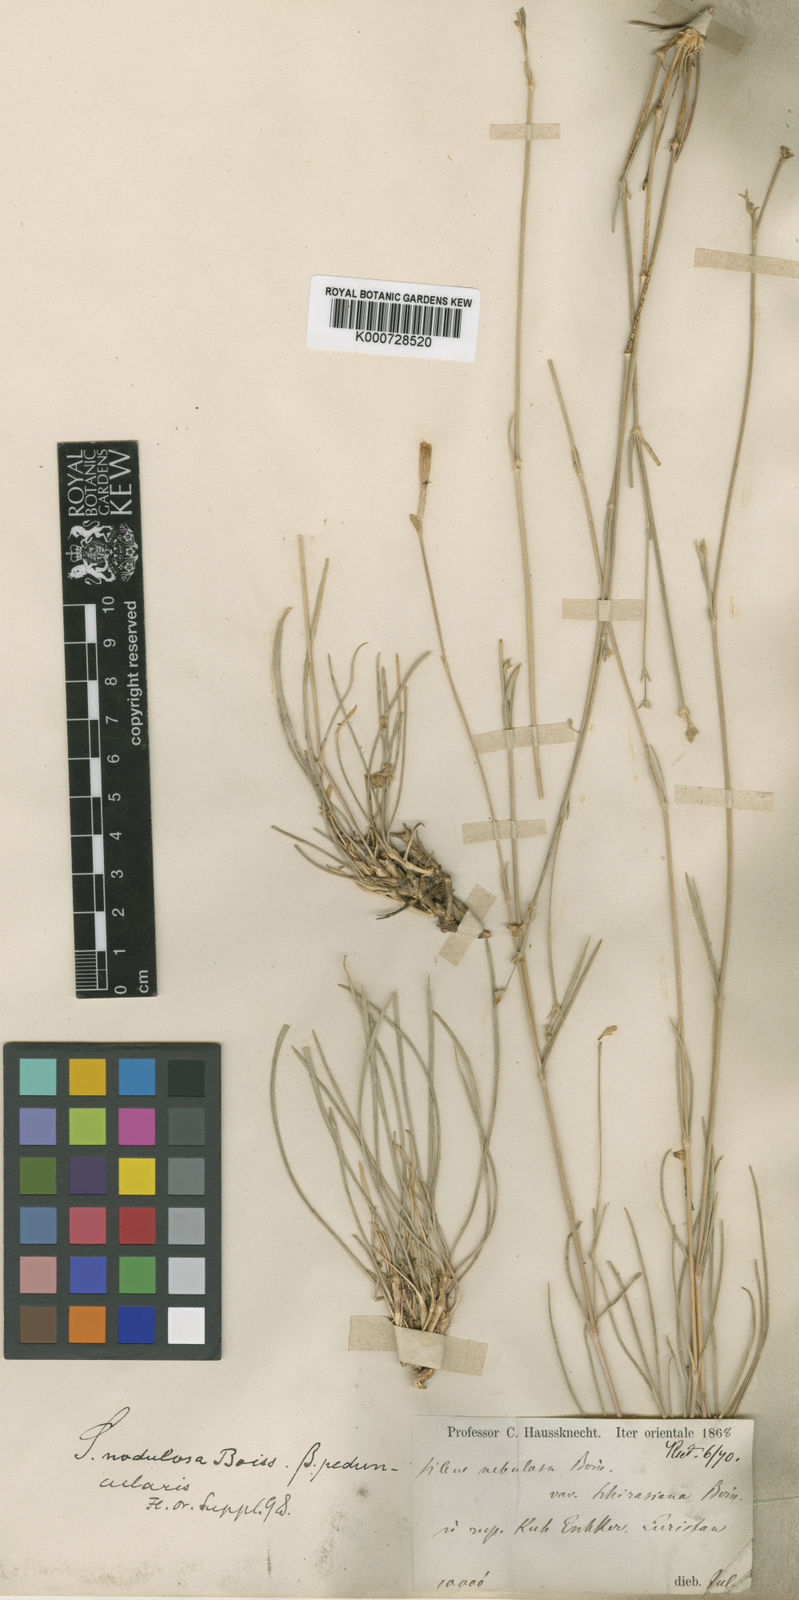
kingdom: Plantae
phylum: Tracheophyta
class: Magnoliopsida
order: Caryophyllales
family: Caryophyllaceae
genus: Silene
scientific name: Silene gynodioica
